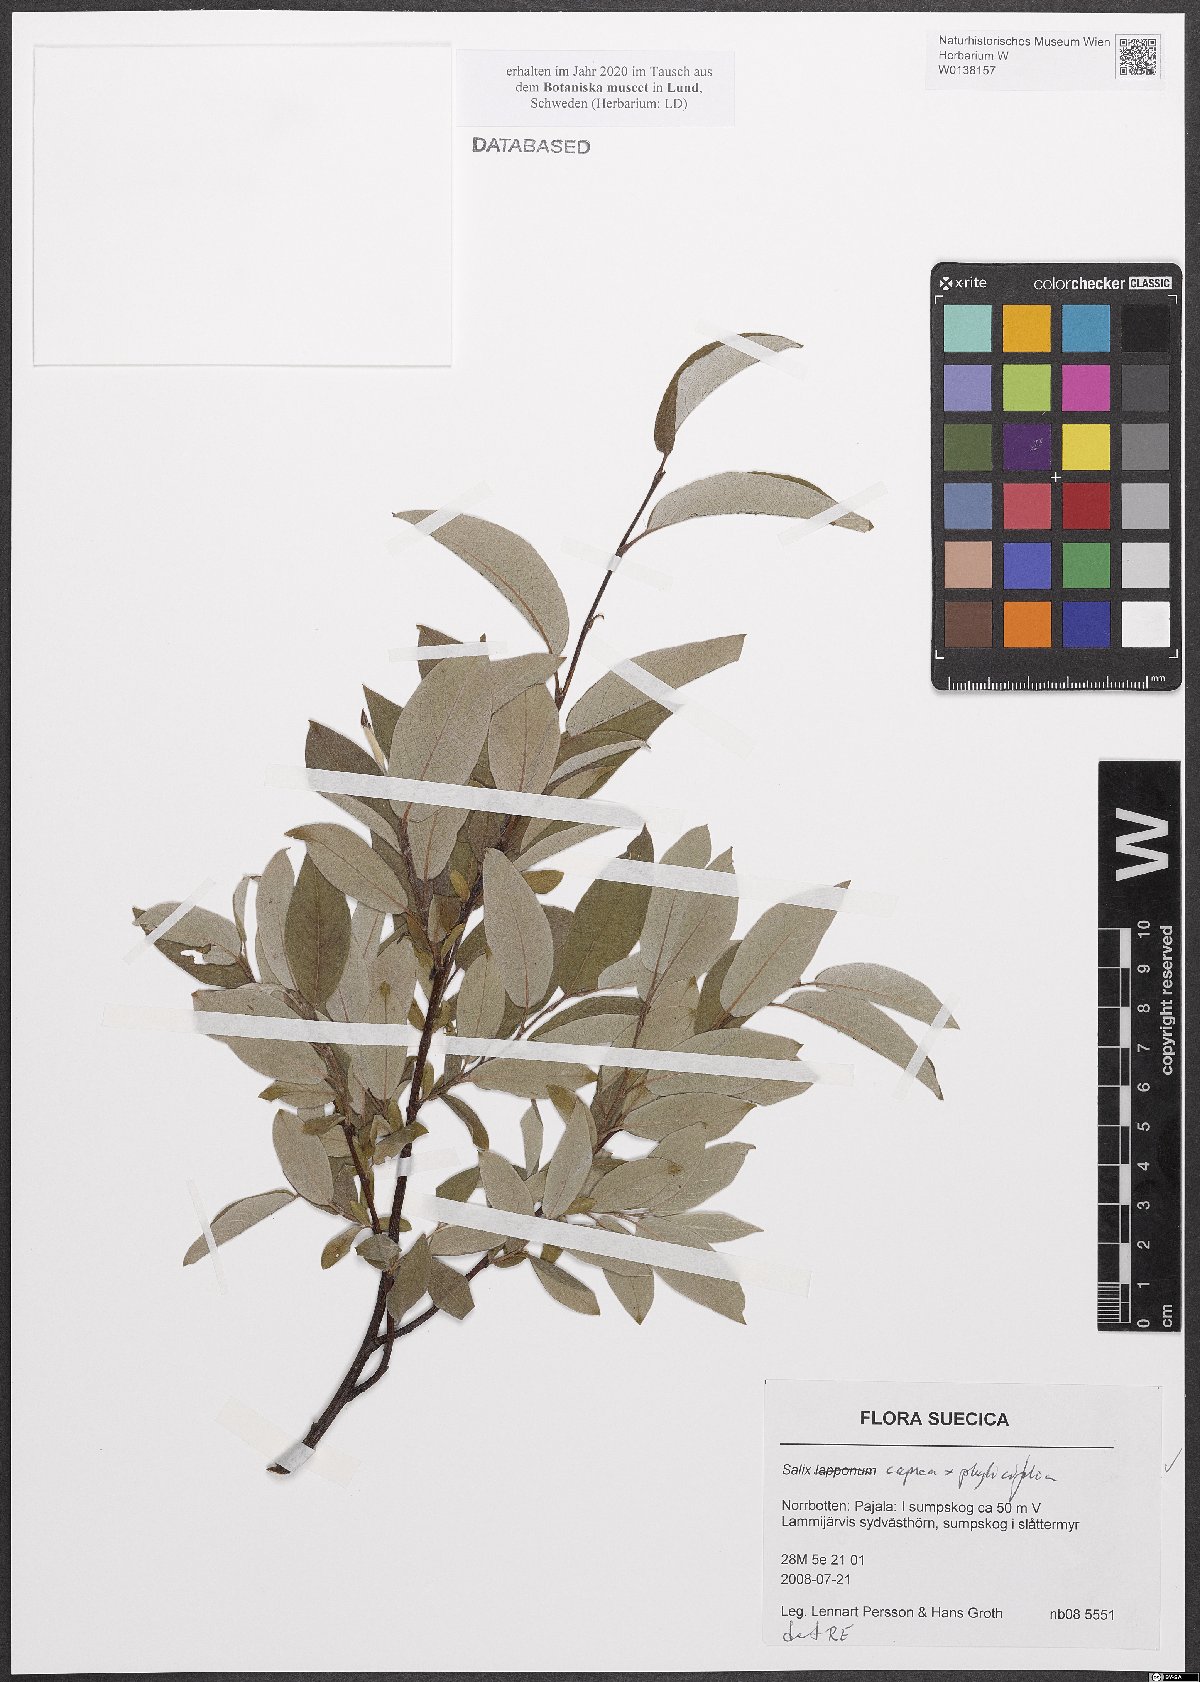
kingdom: Plantae
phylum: Tracheophyta
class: Magnoliopsida
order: Malpighiales
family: Salicaceae
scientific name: Salicaceae
